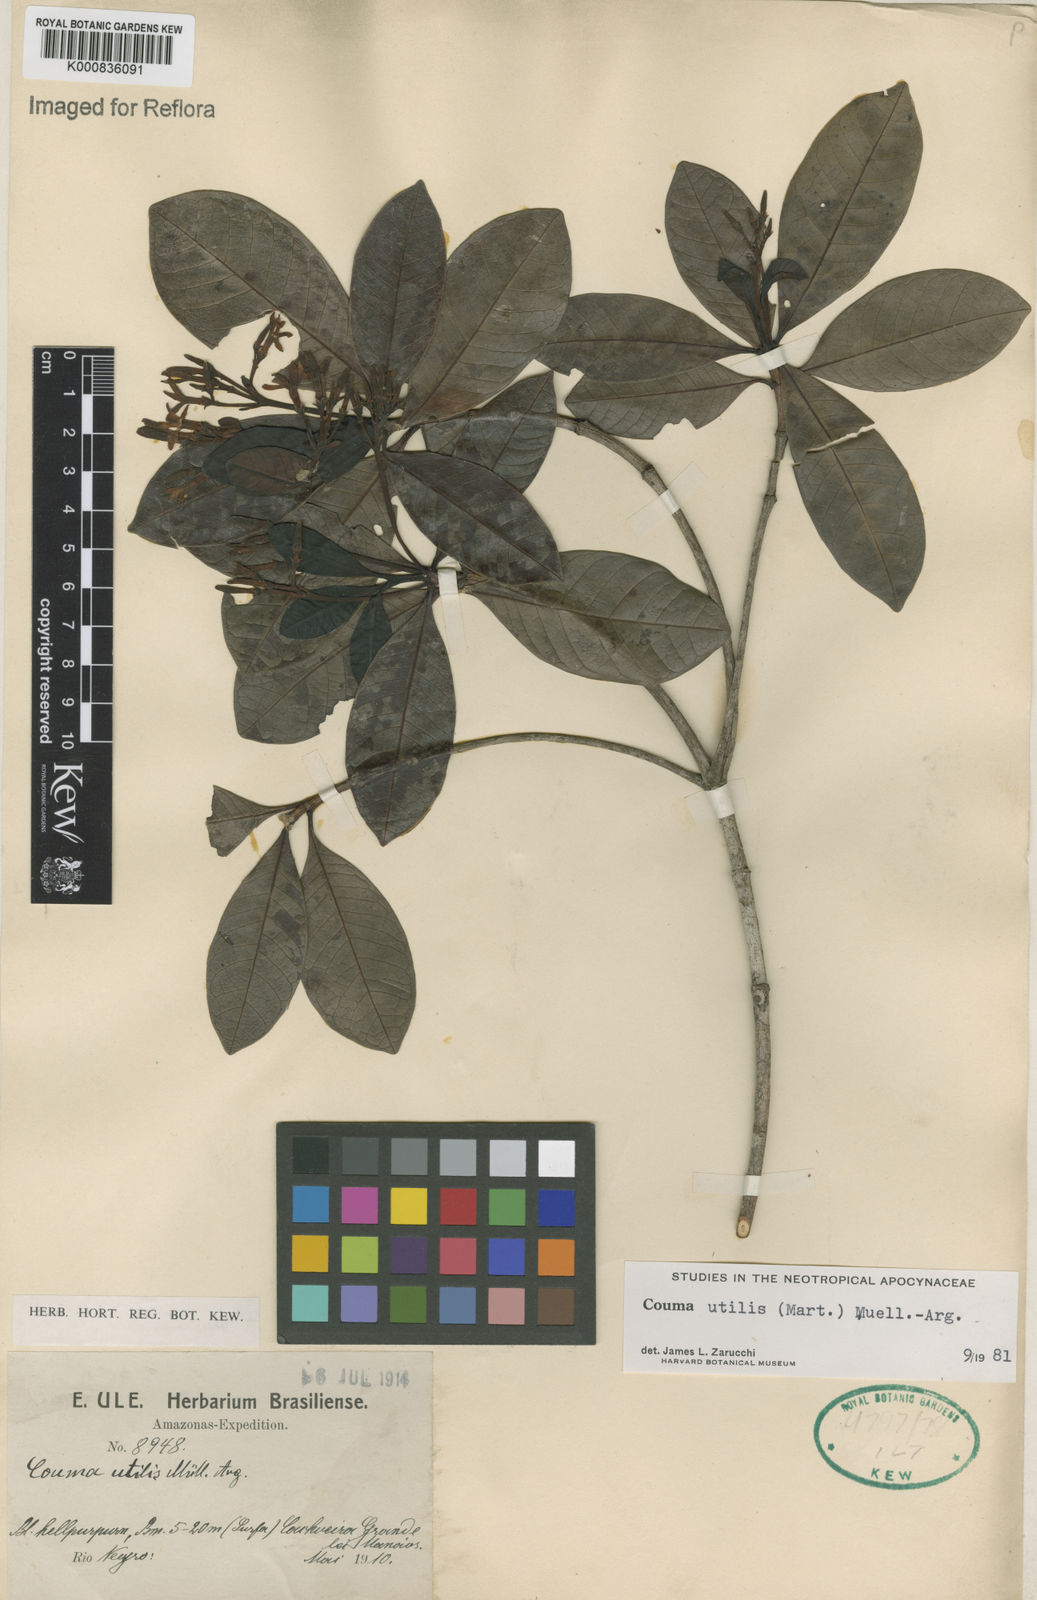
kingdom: Plantae
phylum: Tracheophyta
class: Magnoliopsida
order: Gentianales
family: Apocynaceae
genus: Couma
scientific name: Couma
